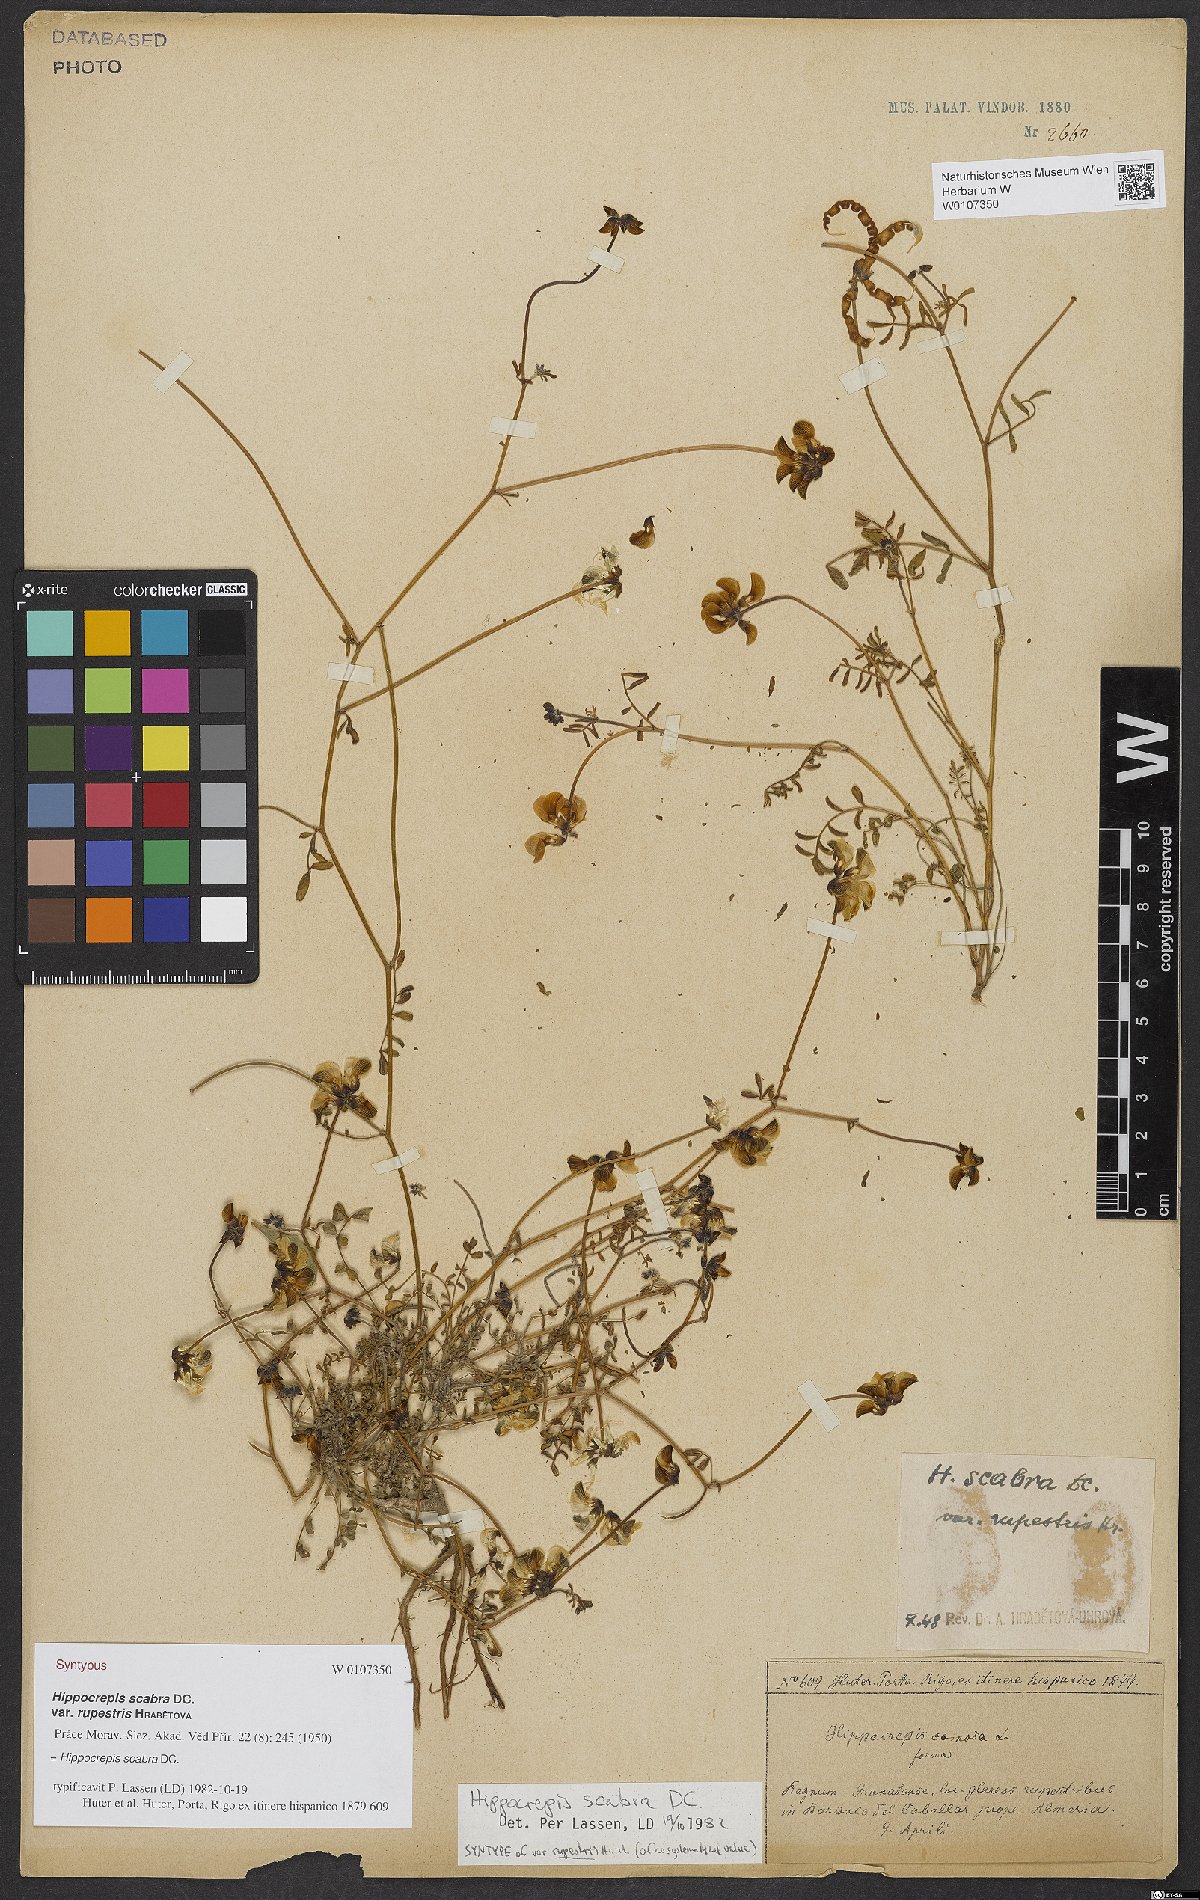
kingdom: Plantae
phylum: Tracheophyta
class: Magnoliopsida
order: Fabales
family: Fabaceae
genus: Hippocrepis
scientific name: Hippocrepis scabra
